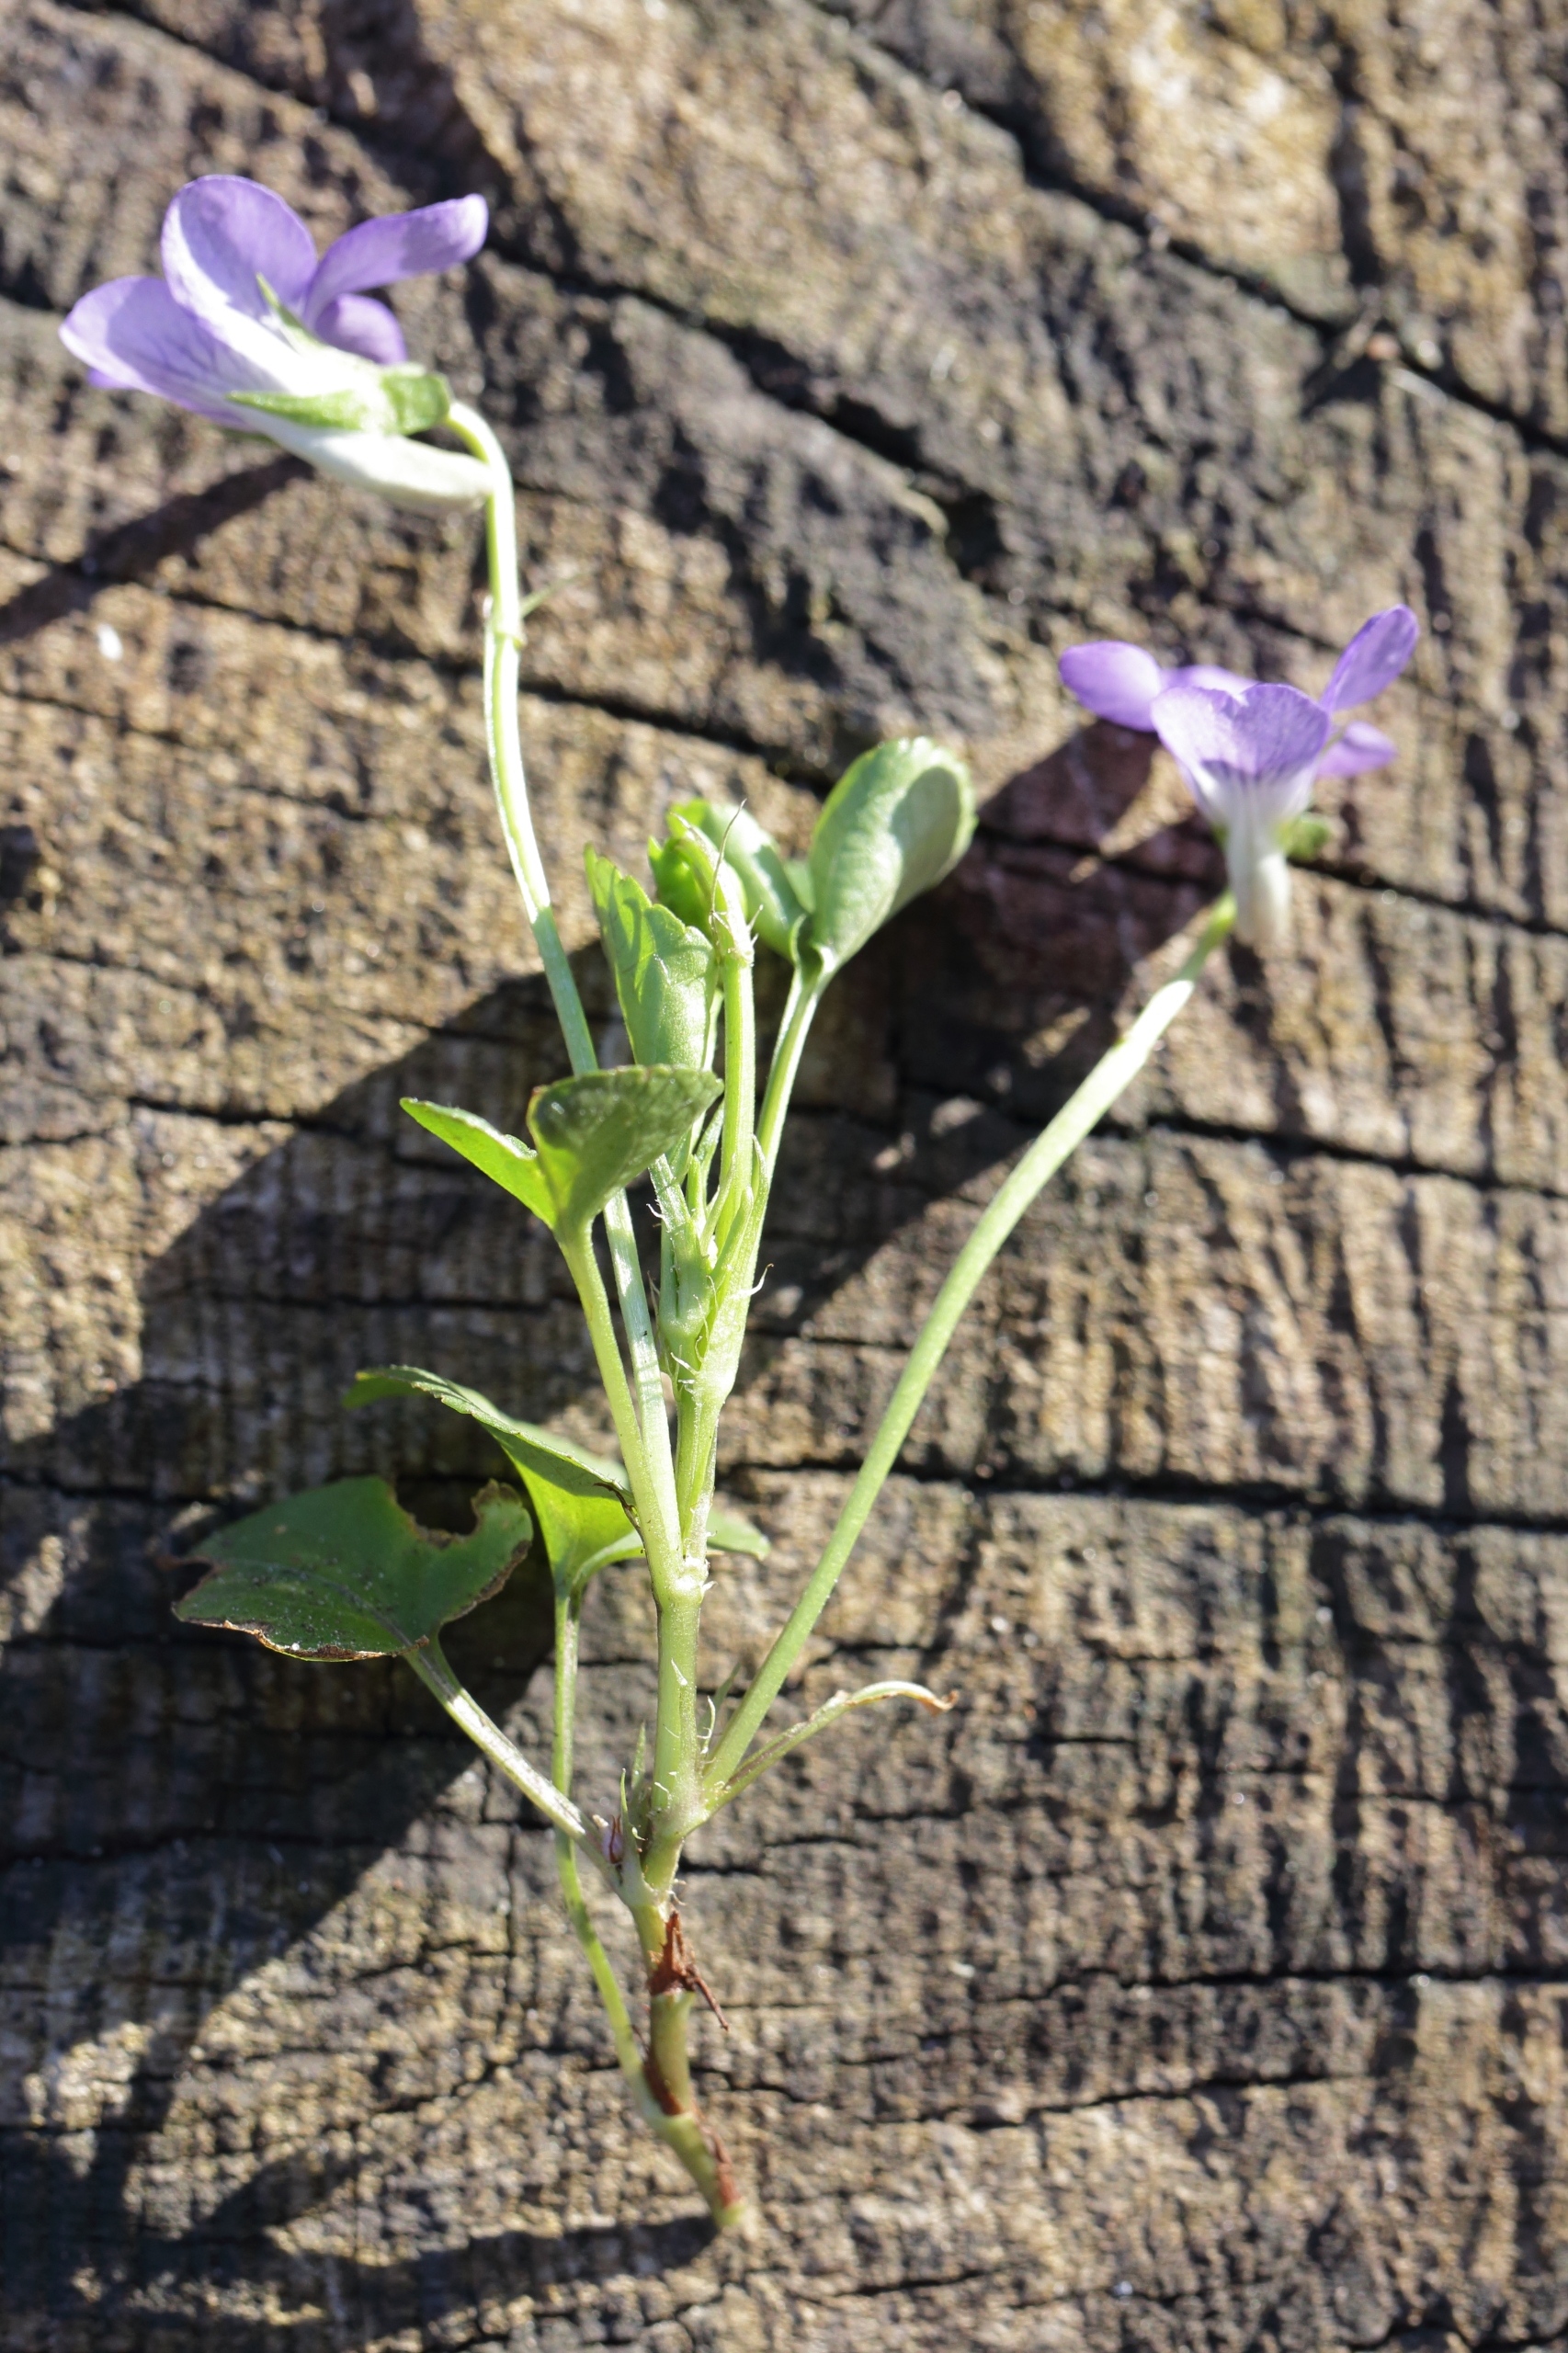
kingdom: Plantae
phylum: Tracheophyta
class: Magnoliopsida
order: Malpighiales
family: Violaceae
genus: Viola
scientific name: Viola riviniana
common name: Krat-viol
